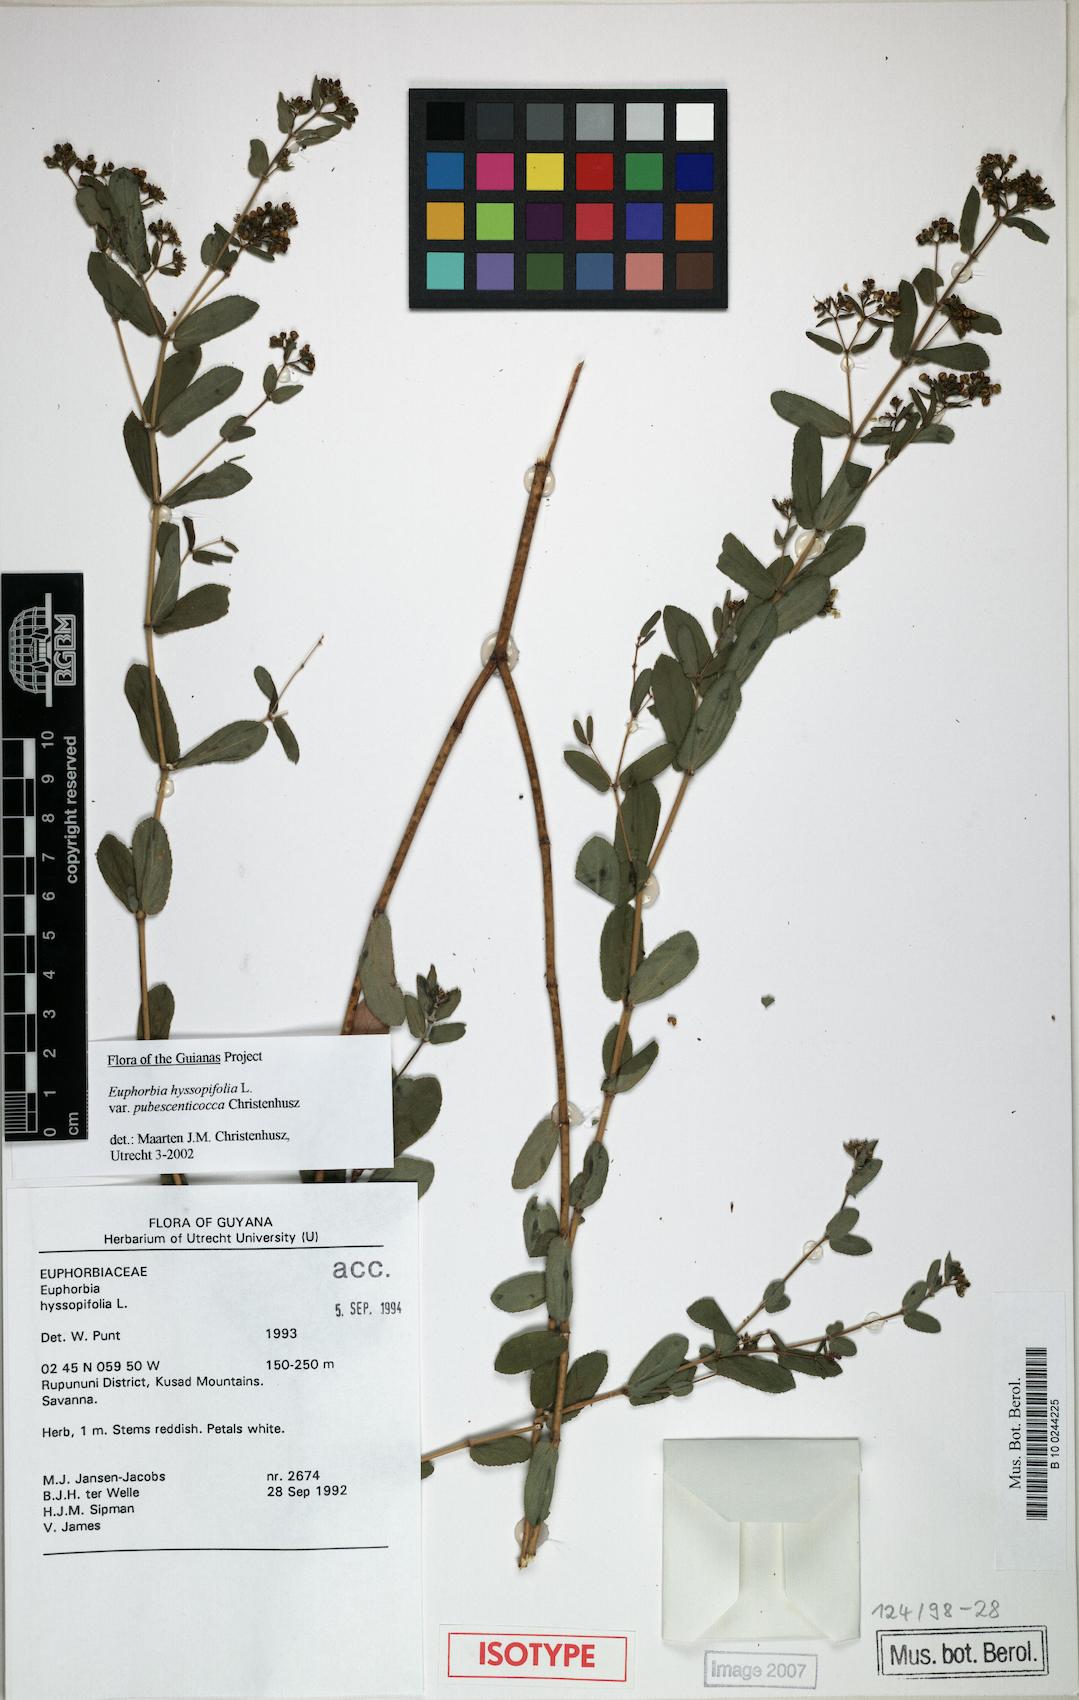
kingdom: Plantae
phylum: Tracheophyta
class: Magnoliopsida
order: Malpighiales
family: Euphorbiaceae
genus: Euphorbia
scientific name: Euphorbia pubescenticocca
